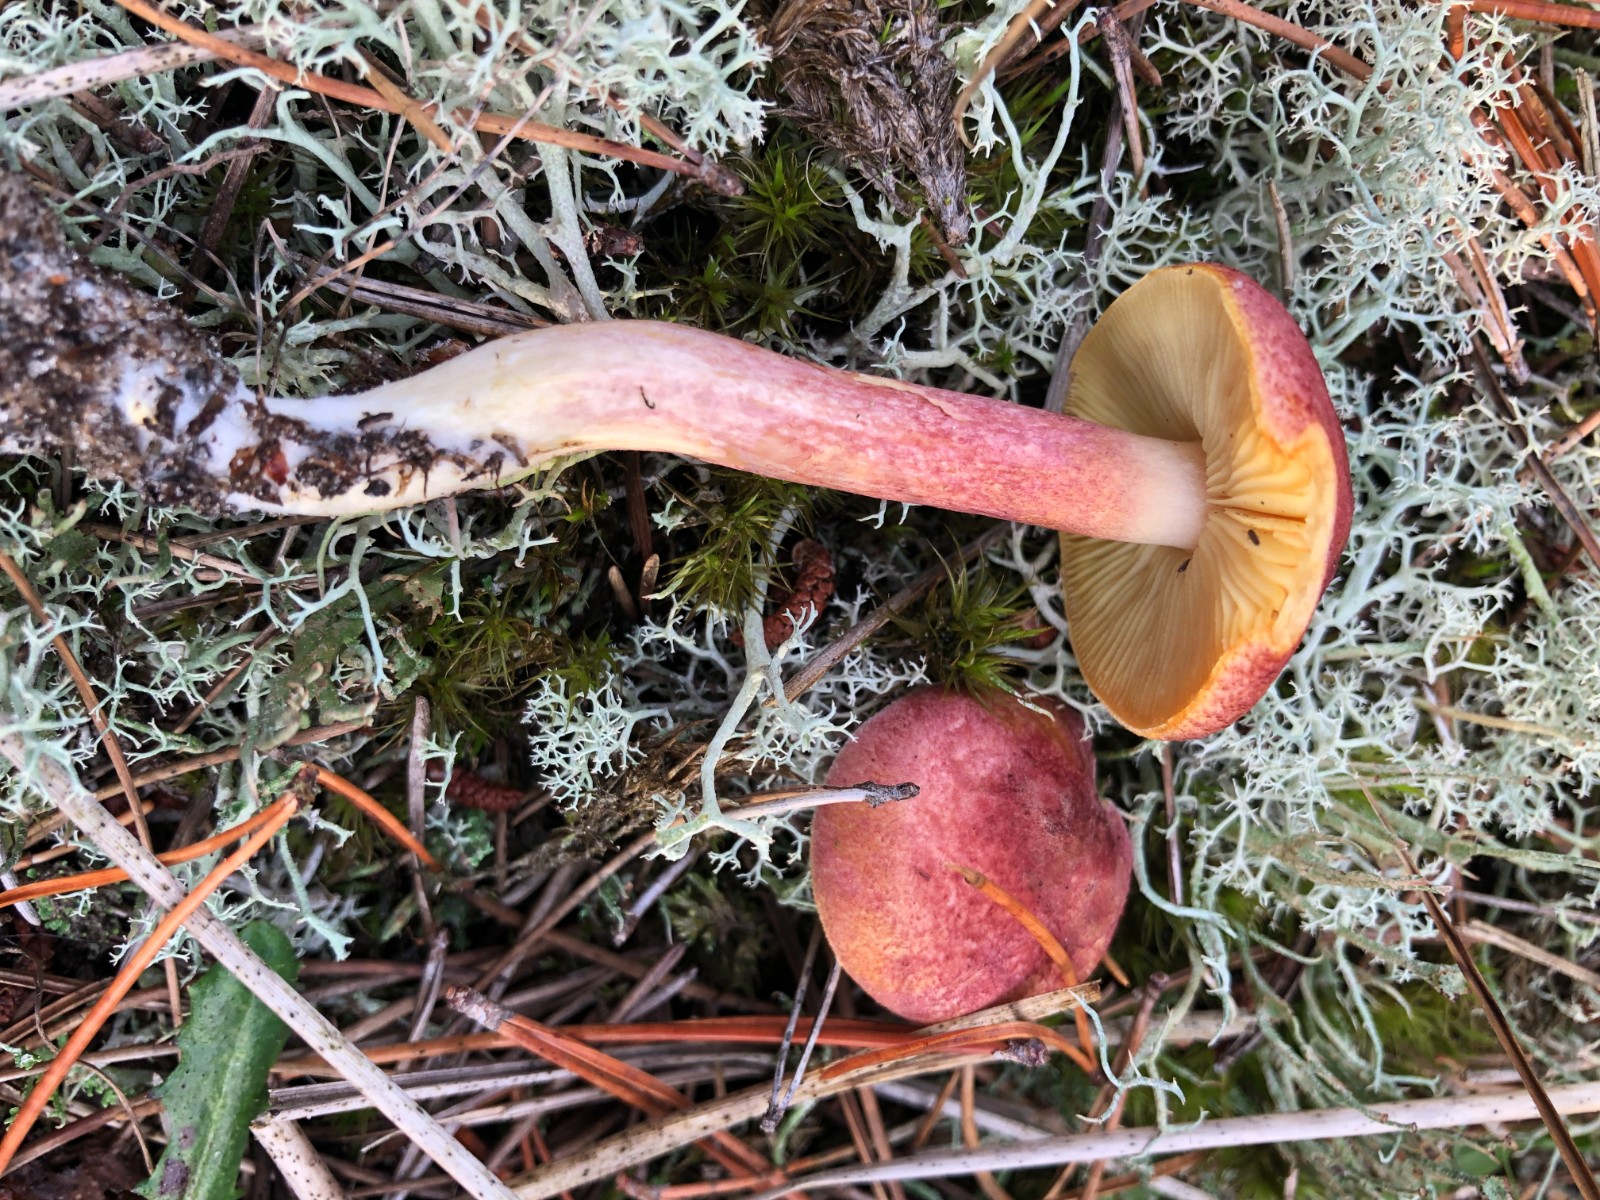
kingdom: Fungi
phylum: Basidiomycota
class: Agaricomycetes
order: Agaricales
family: Tricholomataceae
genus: Tricholomopsis
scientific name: Tricholomopsis rutilans
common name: purpur-væbnerhat
